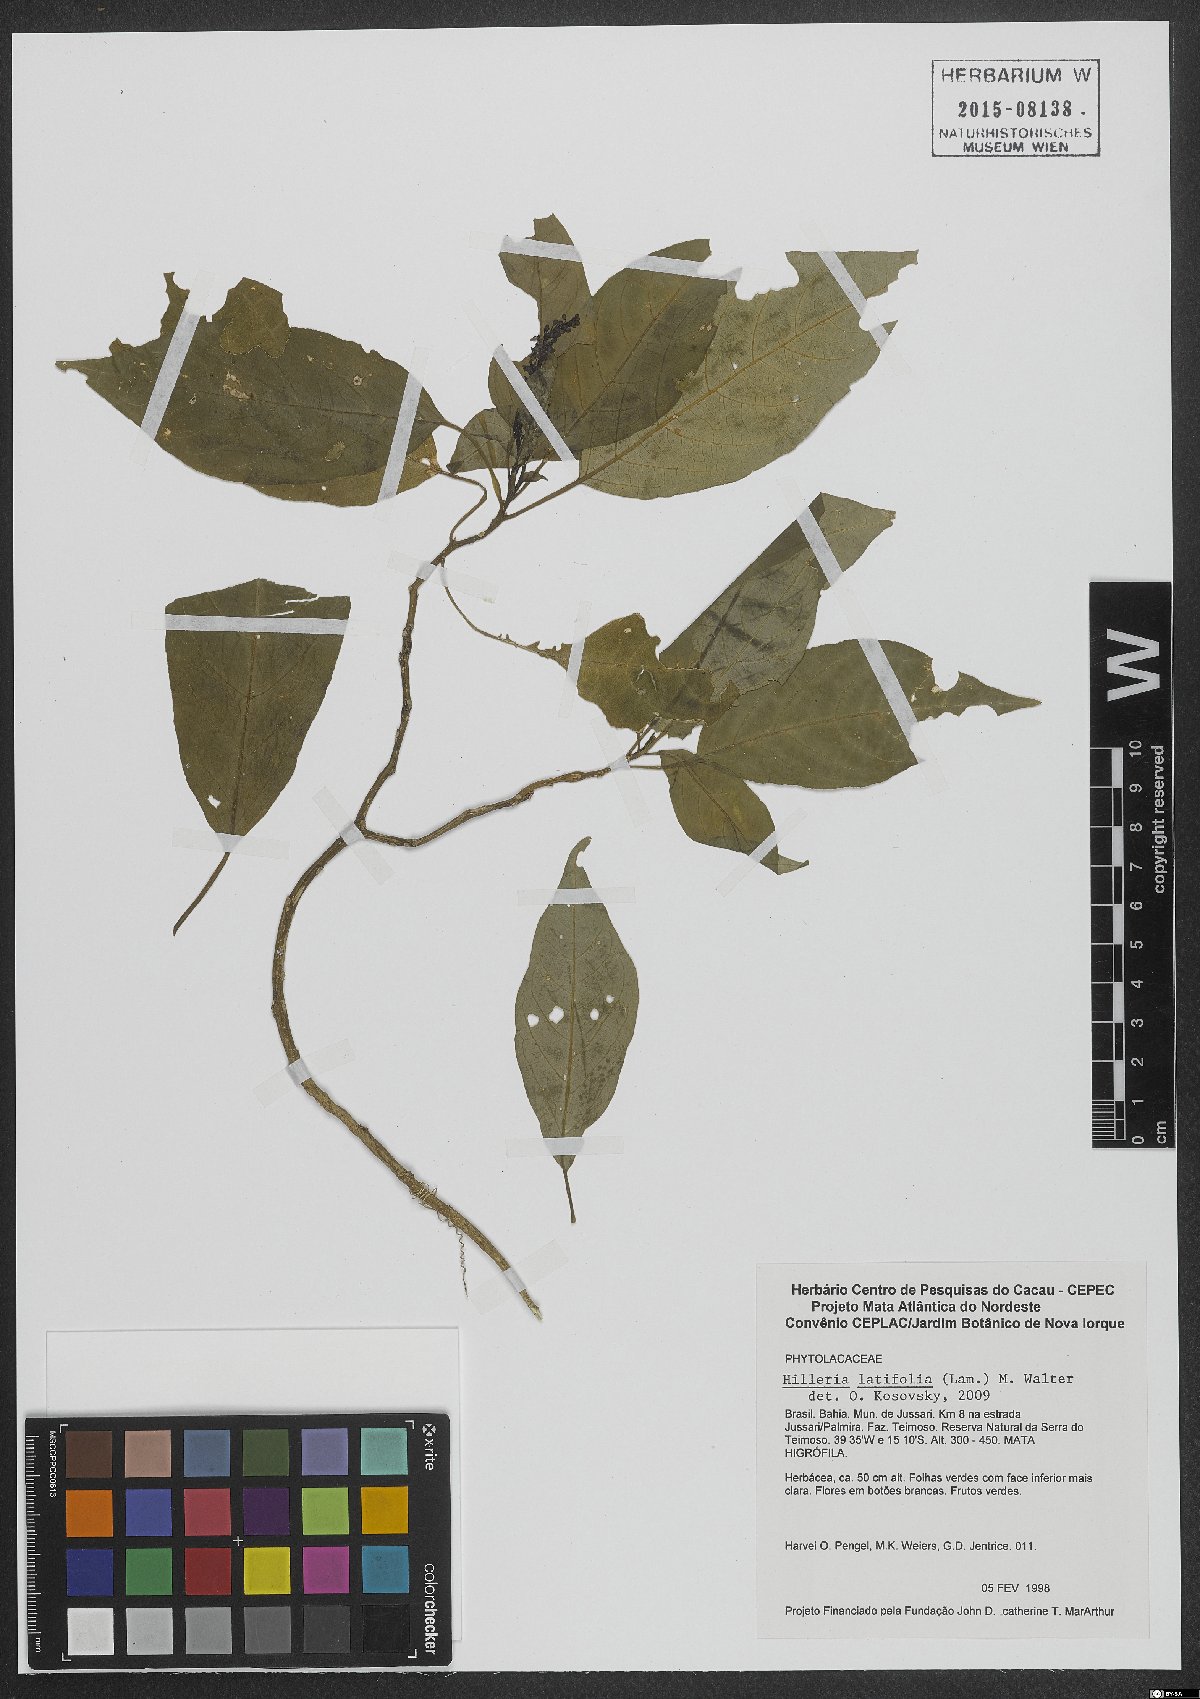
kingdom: Plantae
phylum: Tracheophyta
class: Magnoliopsida
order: Caryophyllales
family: Phytolaccaceae
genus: Hilleria
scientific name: Hilleria latifolia
